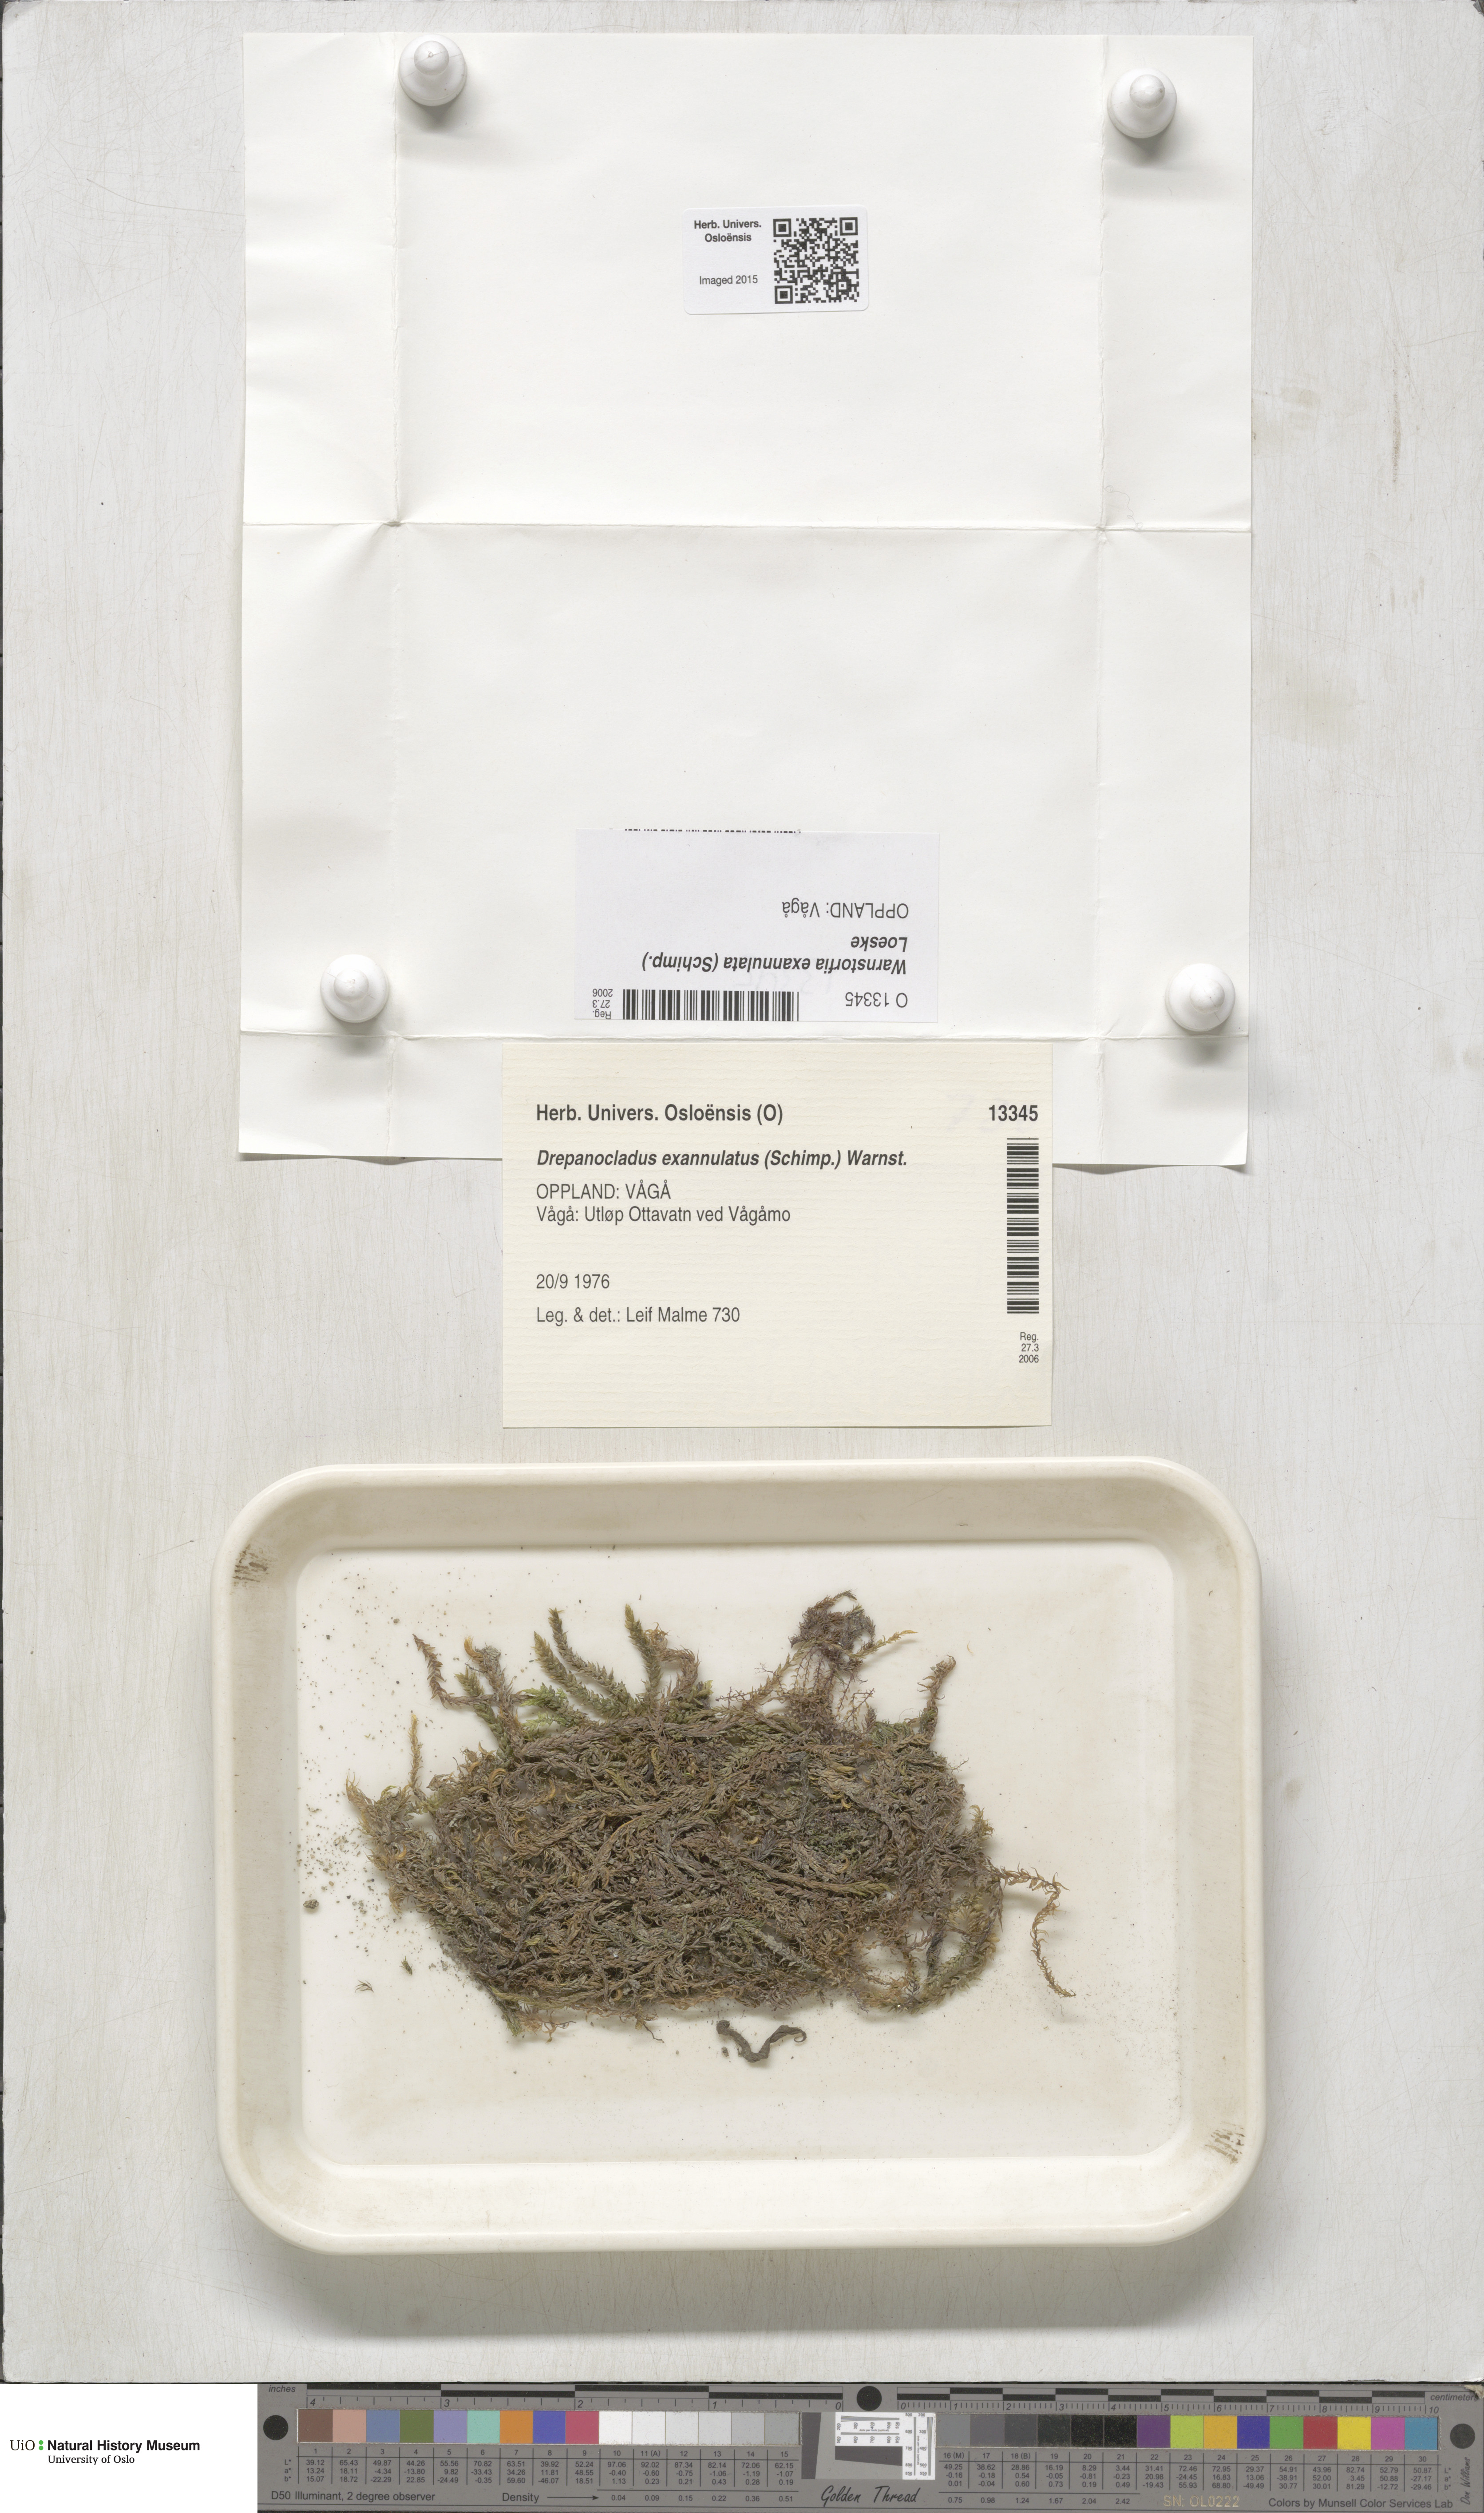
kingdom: Plantae
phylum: Bryophyta
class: Bryopsida
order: Hypnales
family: Calliergonaceae
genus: Sarmentypnum
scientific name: Sarmentypnum exannulatum
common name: Ringless spoon moss
